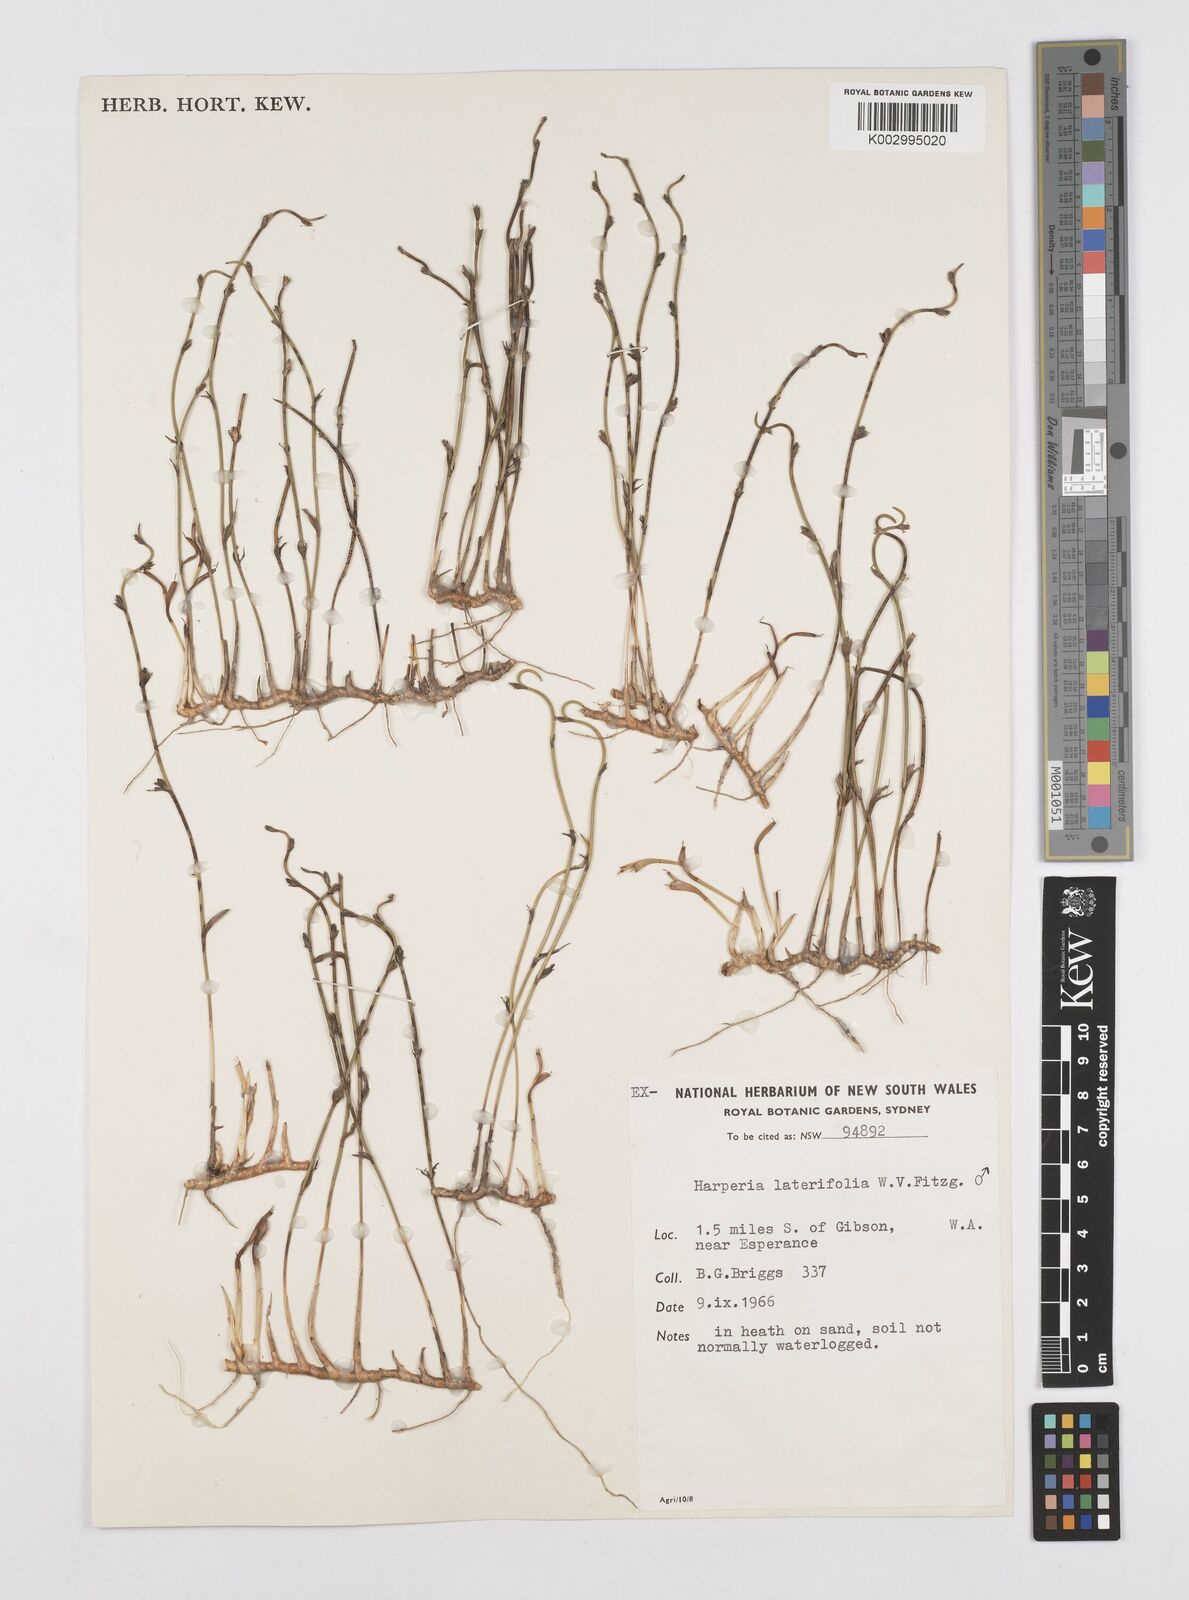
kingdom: Plantae
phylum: Tracheophyta
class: Liliopsida
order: Poales
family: Restionaceae
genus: Desmocladus
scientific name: Desmocladus lateriflorus
